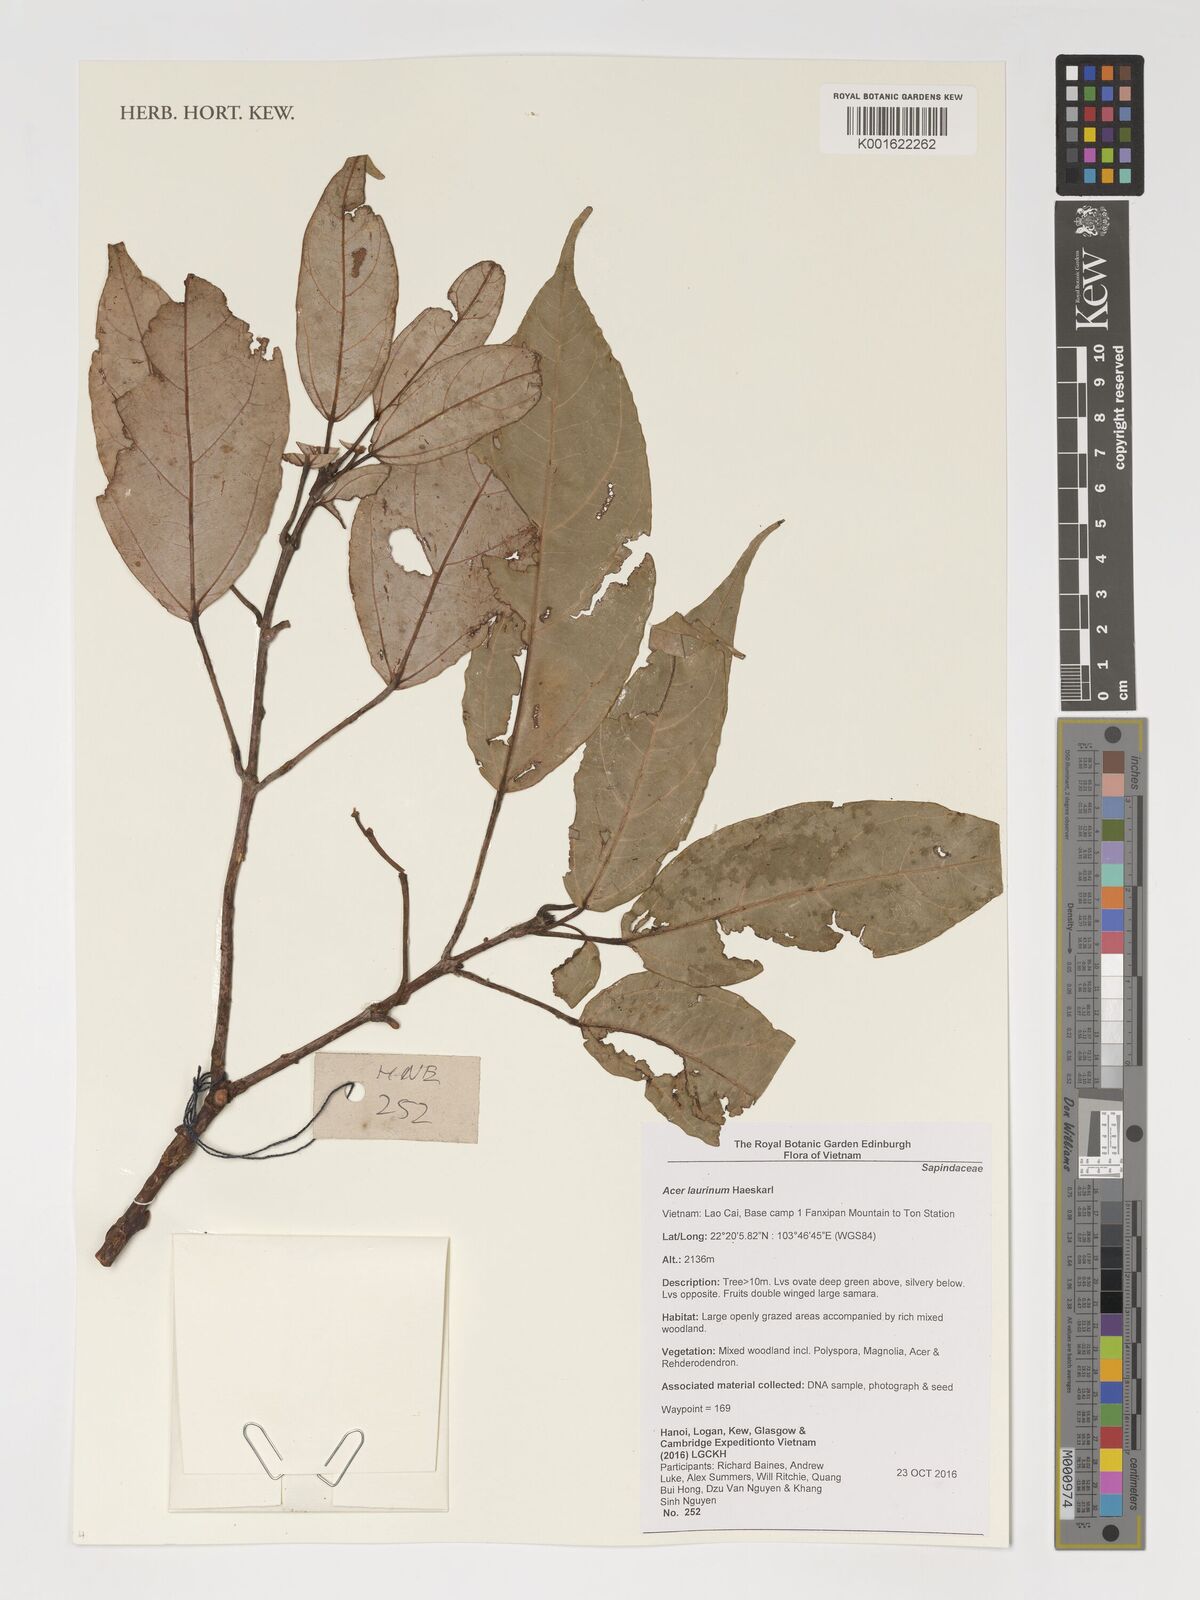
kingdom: Plantae
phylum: Tracheophyta
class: Magnoliopsida
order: Sapindales
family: Sapindaceae
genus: Acer
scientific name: Acer laurinum
